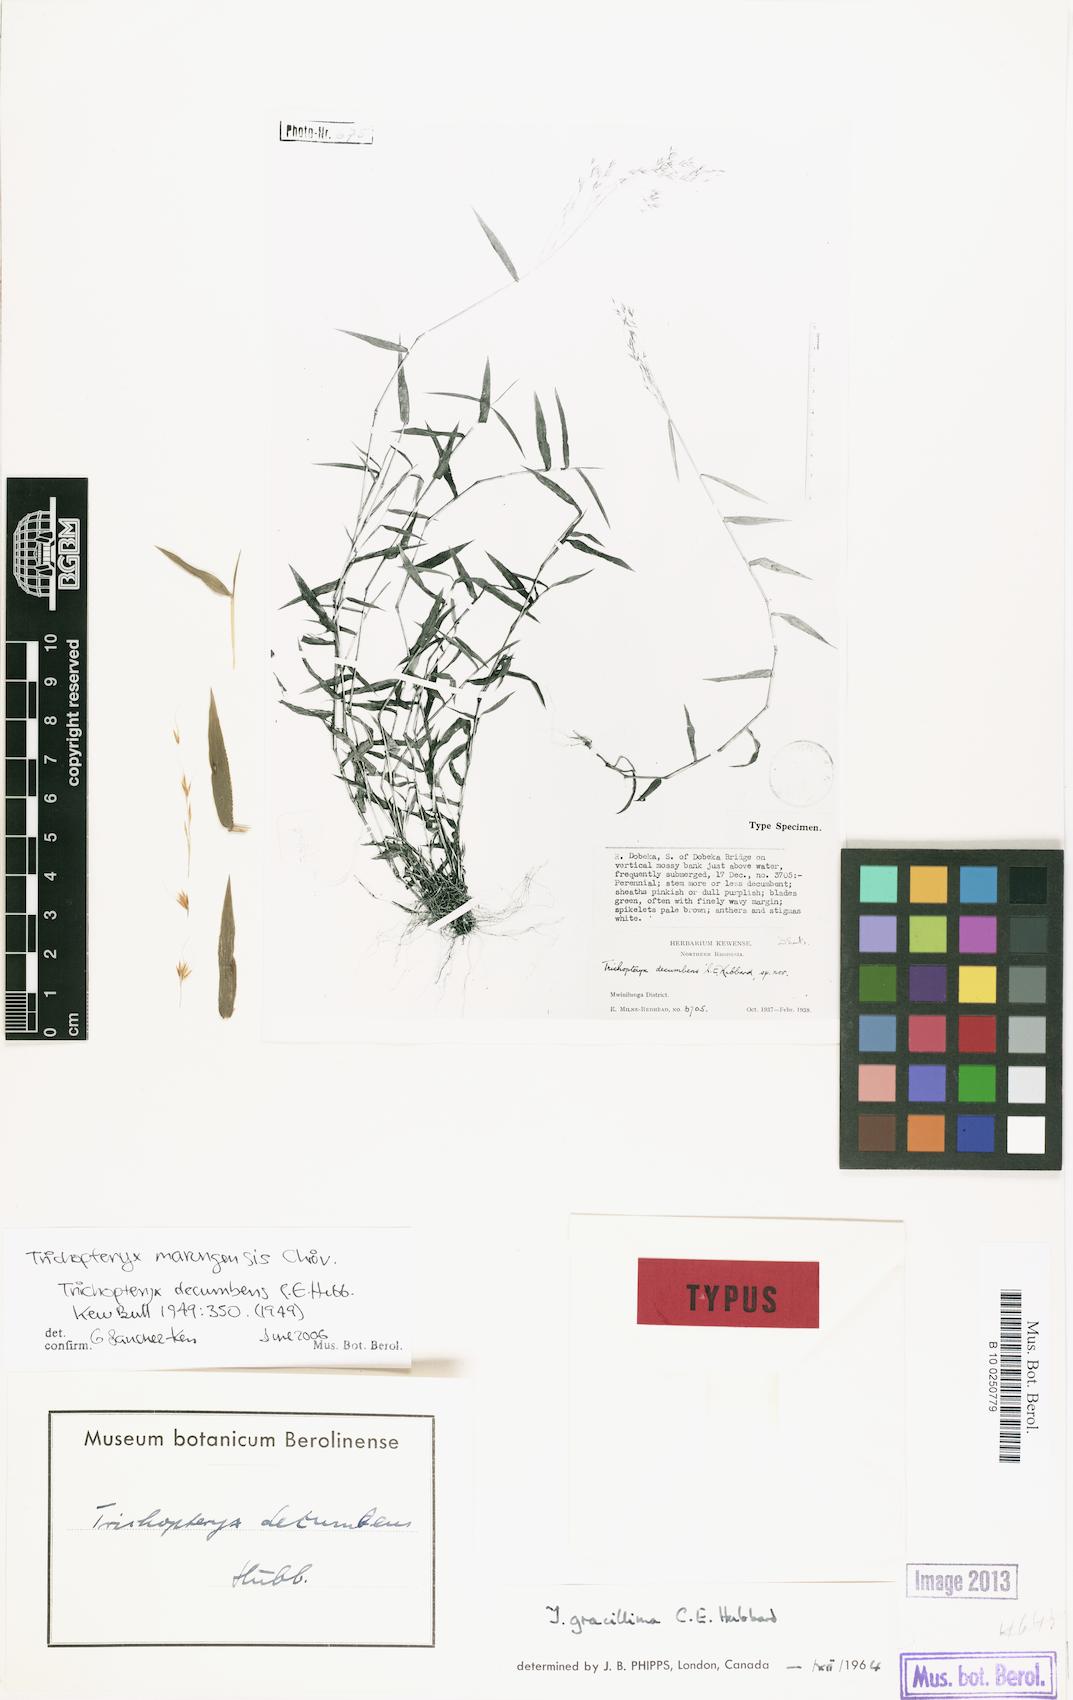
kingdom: Plantae
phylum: Tracheophyta
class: Liliopsida
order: Poales
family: Poaceae
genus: Trichopteryx
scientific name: Trichopteryx marungensis
